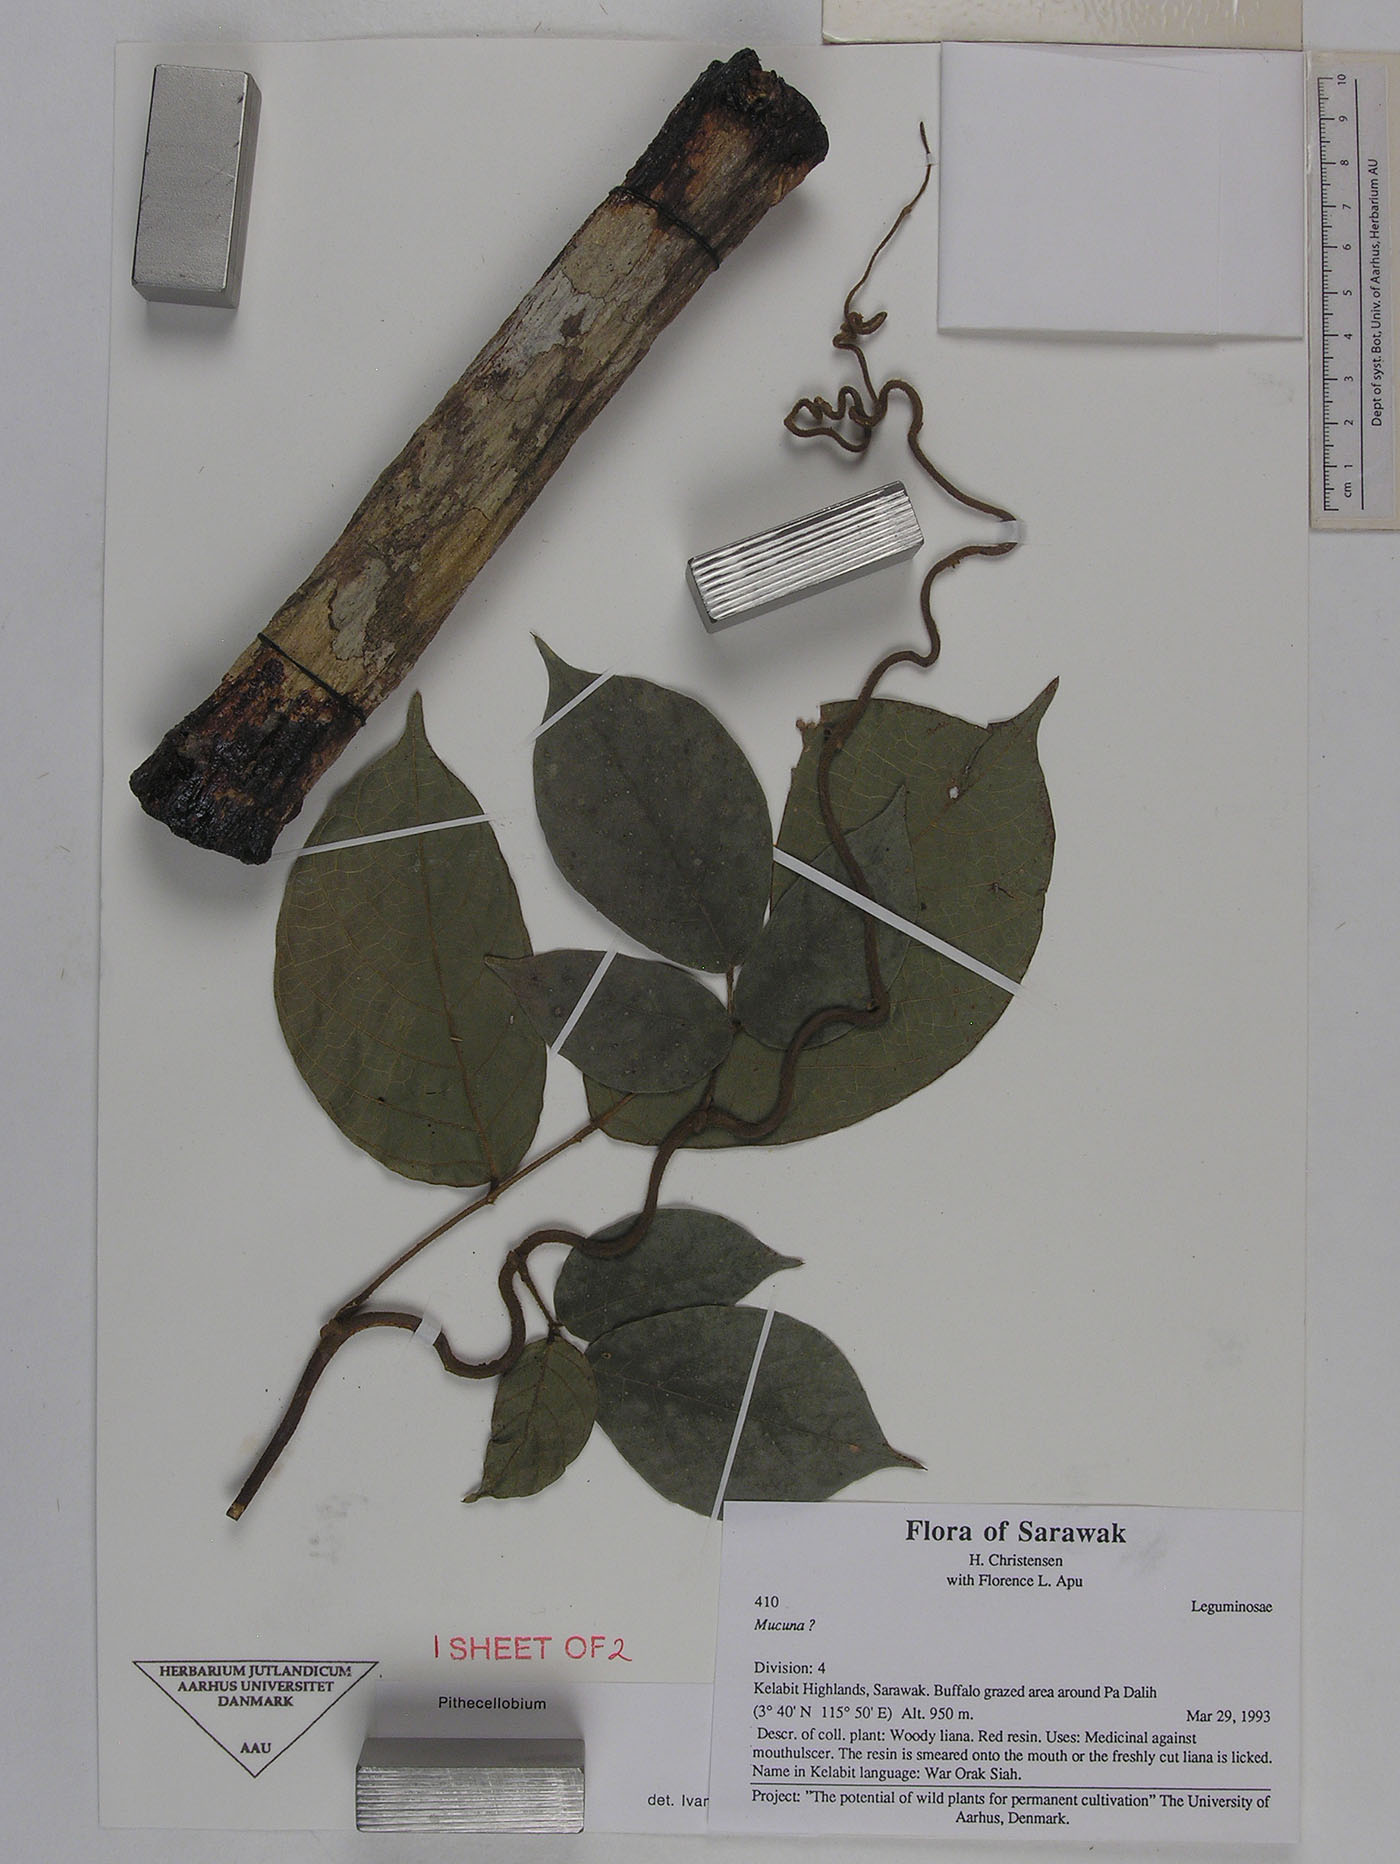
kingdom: Plantae
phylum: Tracheophyta
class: Magnoliopsida
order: Fabales
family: Fabaceae
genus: Spatholobus
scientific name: Spatholobus sanguineus
